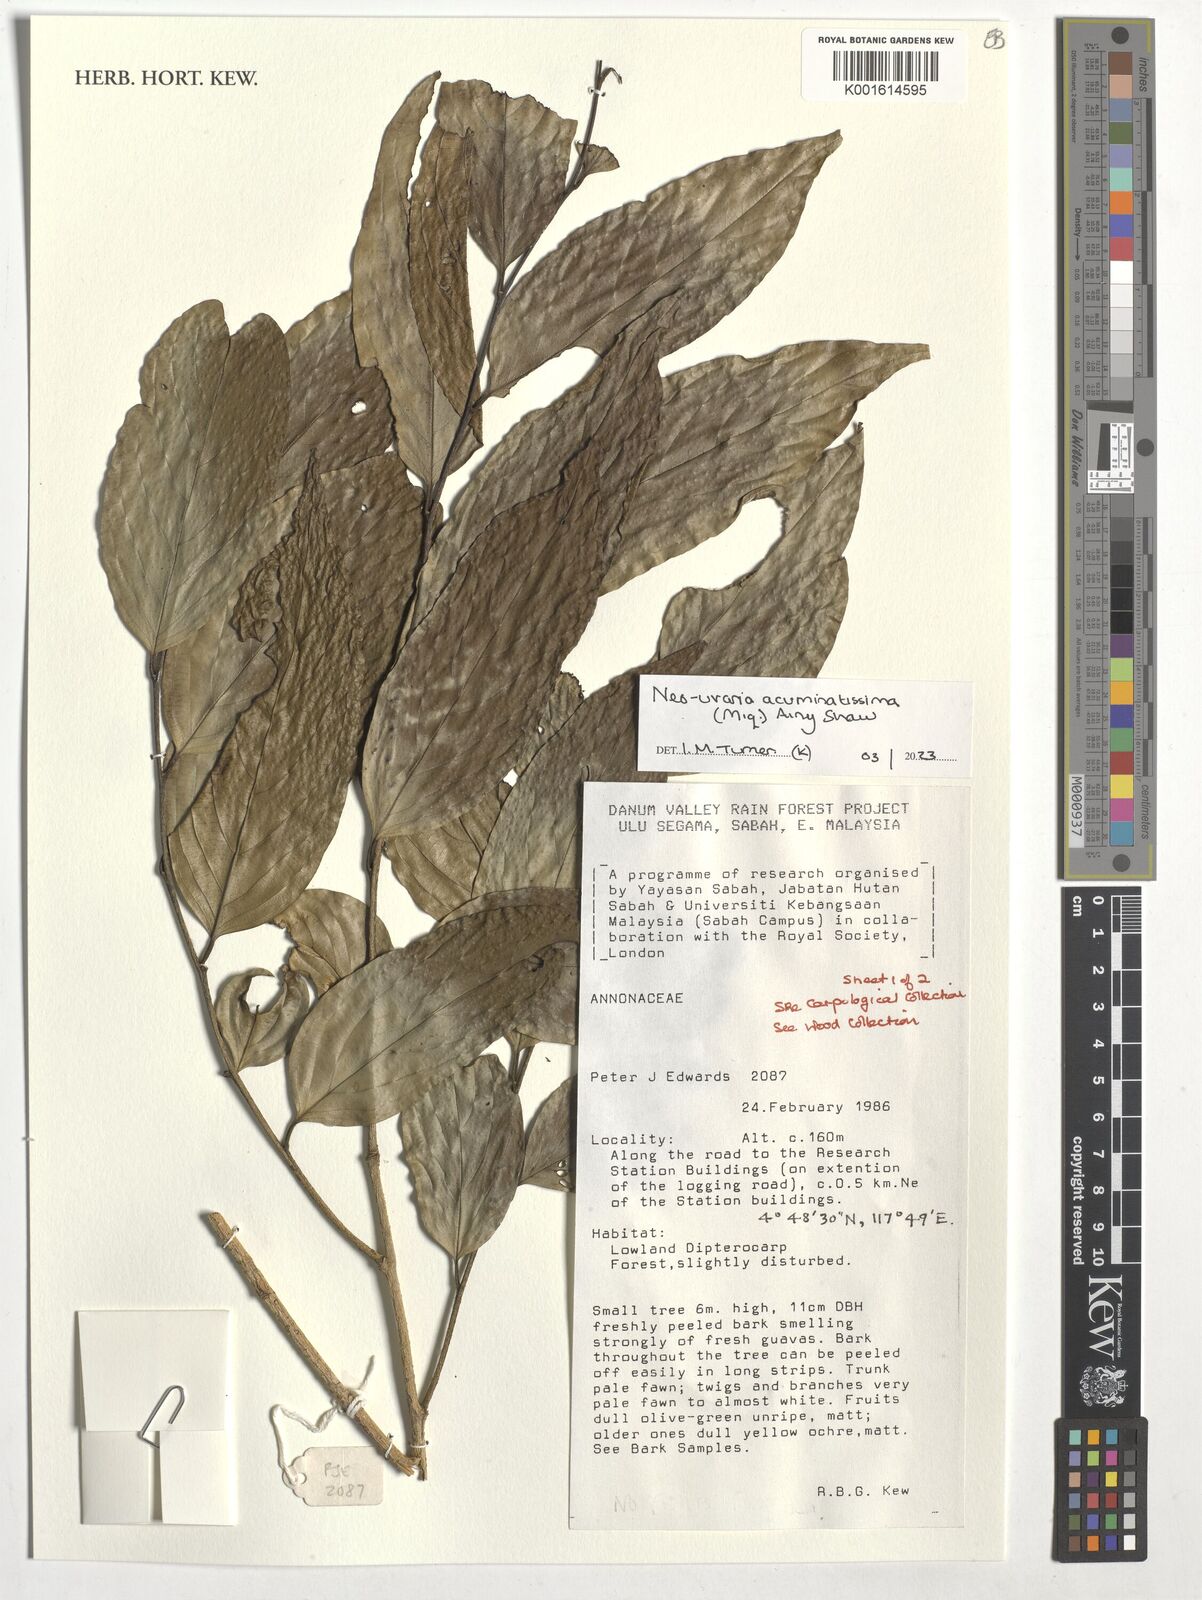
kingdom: Plantae
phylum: Tracheophyta
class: Magnoliopsida
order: Magnoliales
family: Annonaceae
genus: Neouvaria
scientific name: Neouvaria acuminatissima
